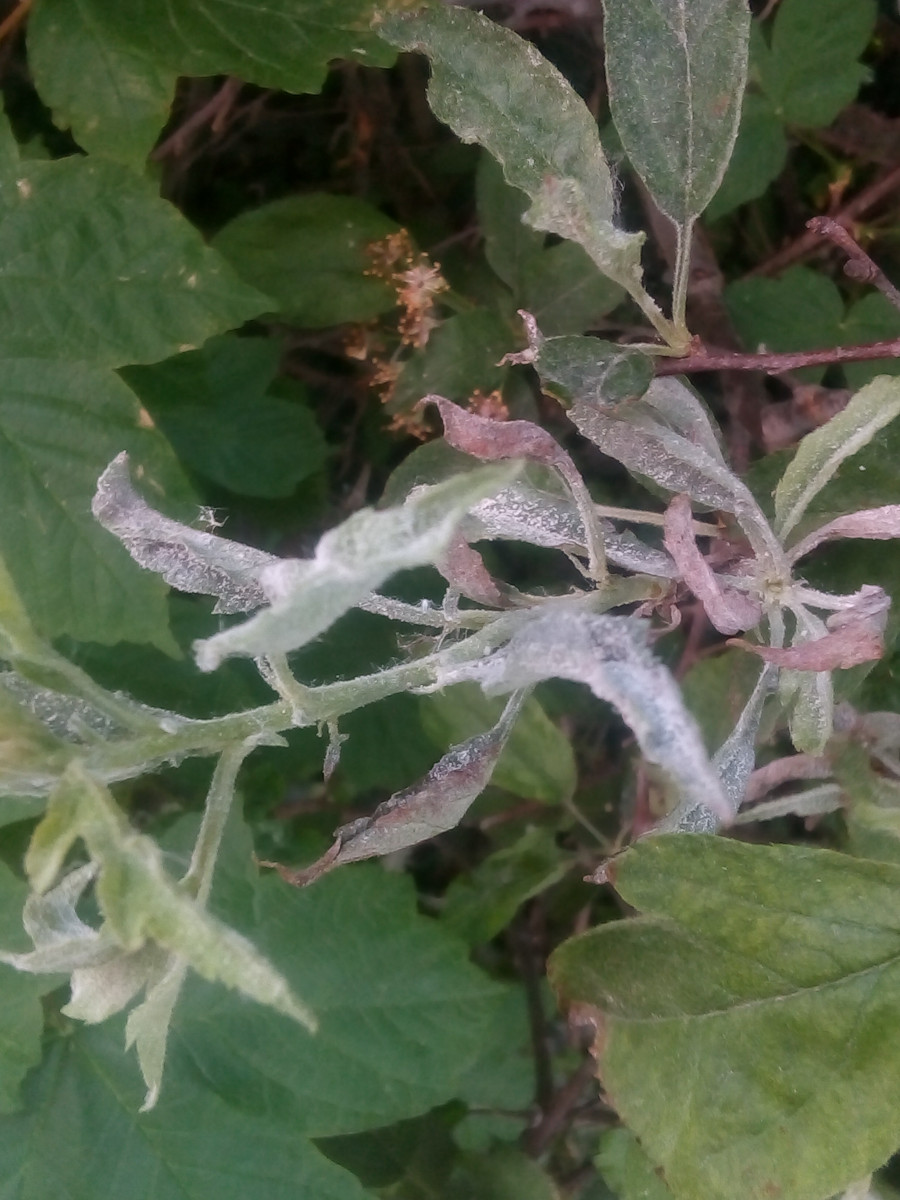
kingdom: Fungi
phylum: Ascomycota
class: Leotiomycetes
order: Helotiales
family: Erysiphaceae
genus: Podosphaera
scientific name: Podosphaera leucotricha
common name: æble-meldug
